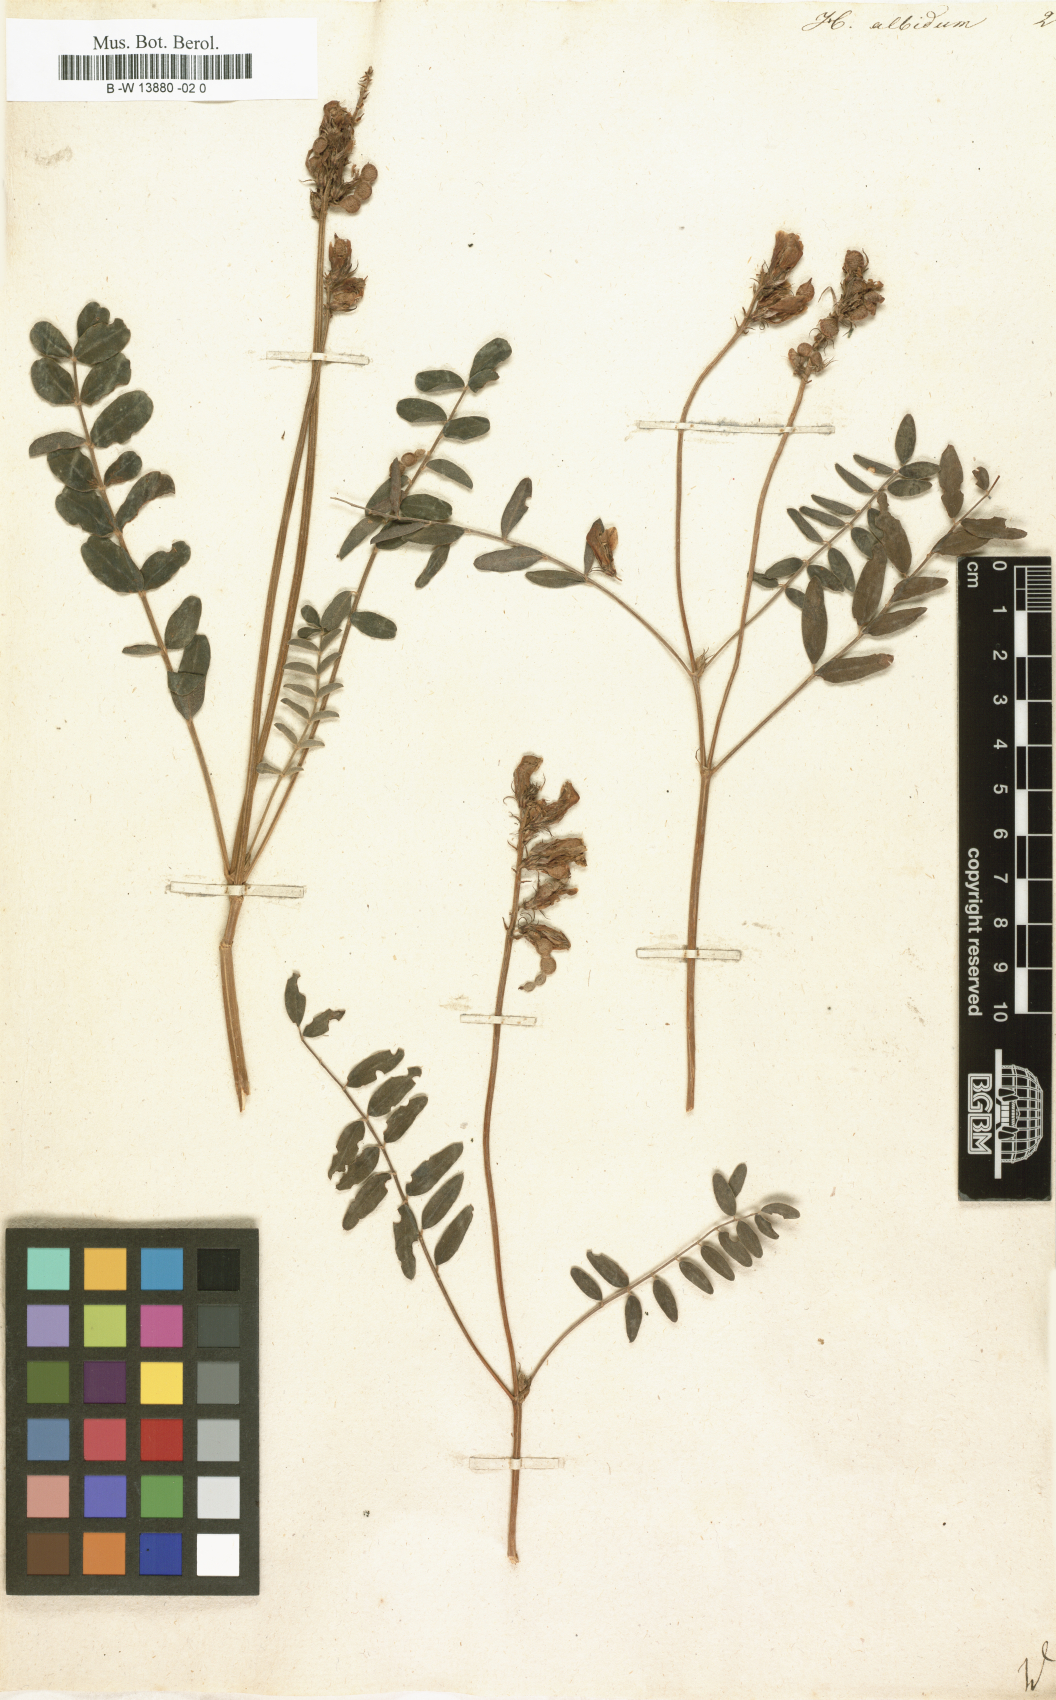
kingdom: Plantae
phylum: Tracheophyta
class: Magnoliopsida
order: Fabales
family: Fabaceae
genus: Hedysarum
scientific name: Hedysarum algidum
